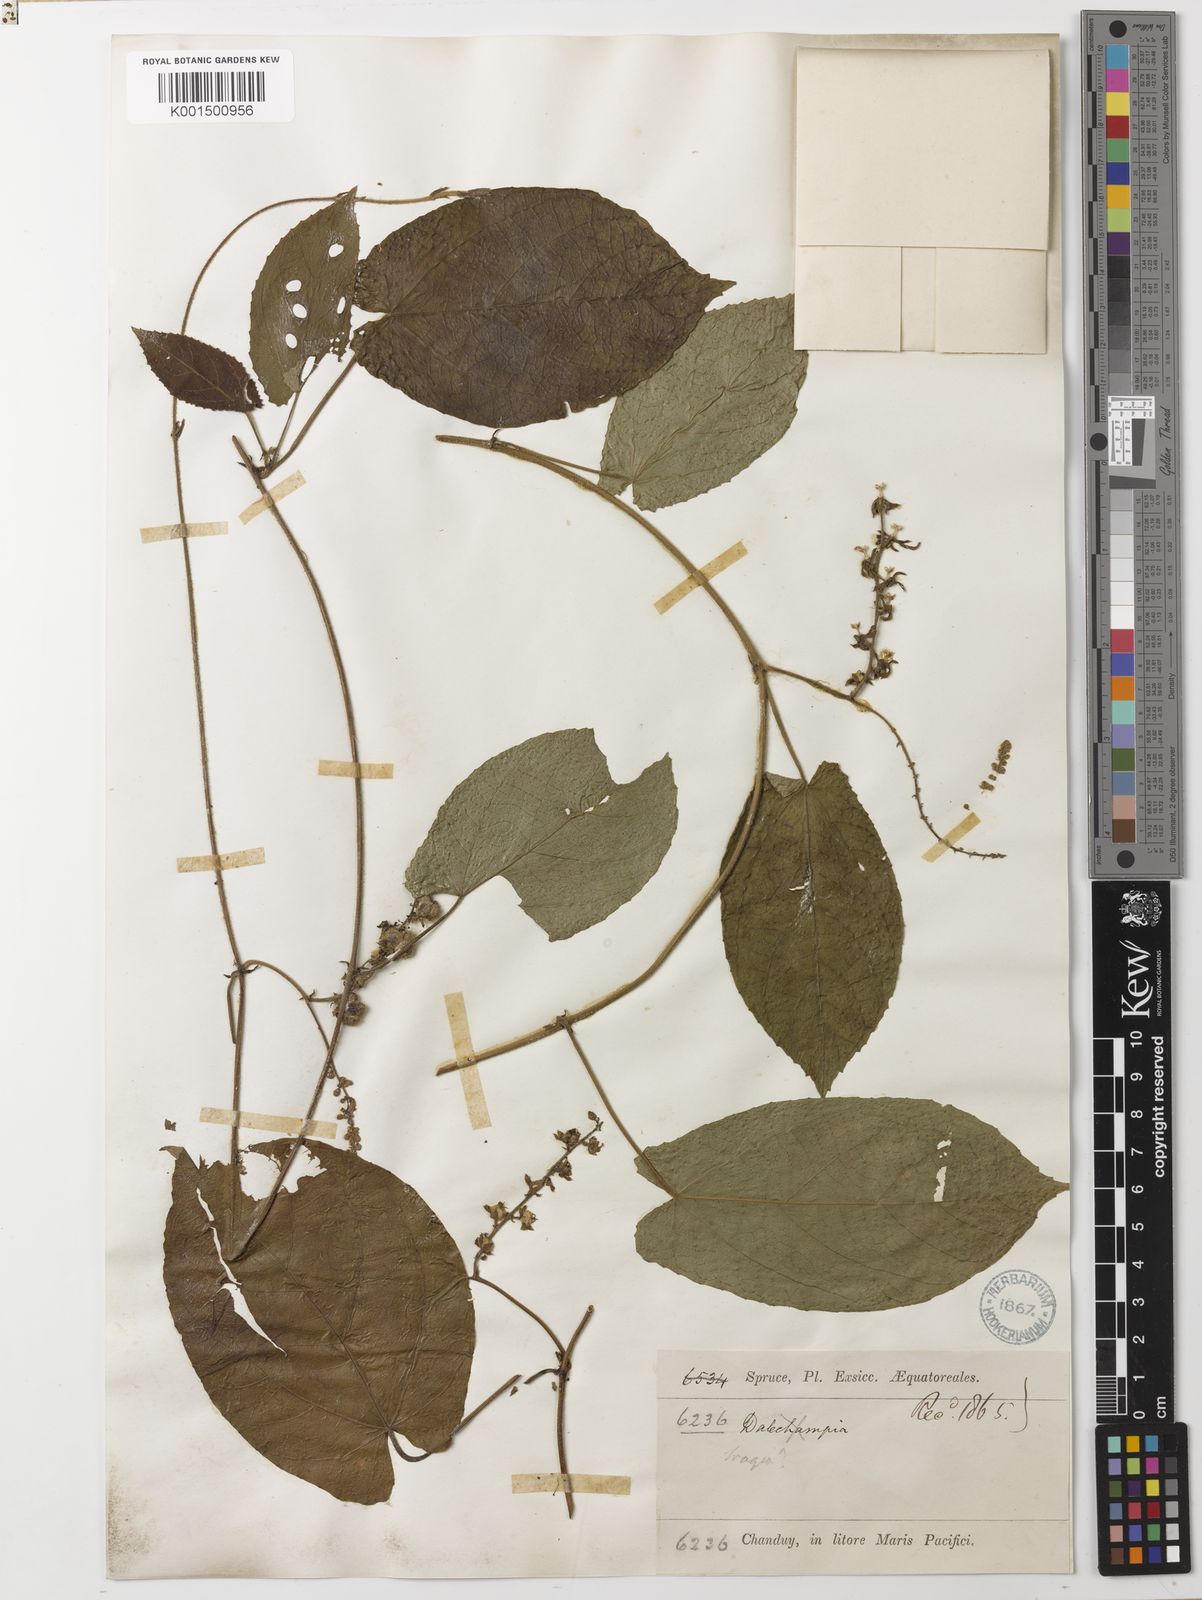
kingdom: Plantae
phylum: Tracheophyta
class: Magnoliopsida
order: Malpighiales
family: Euphorbiaceae
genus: Bia
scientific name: Bia fendleri
